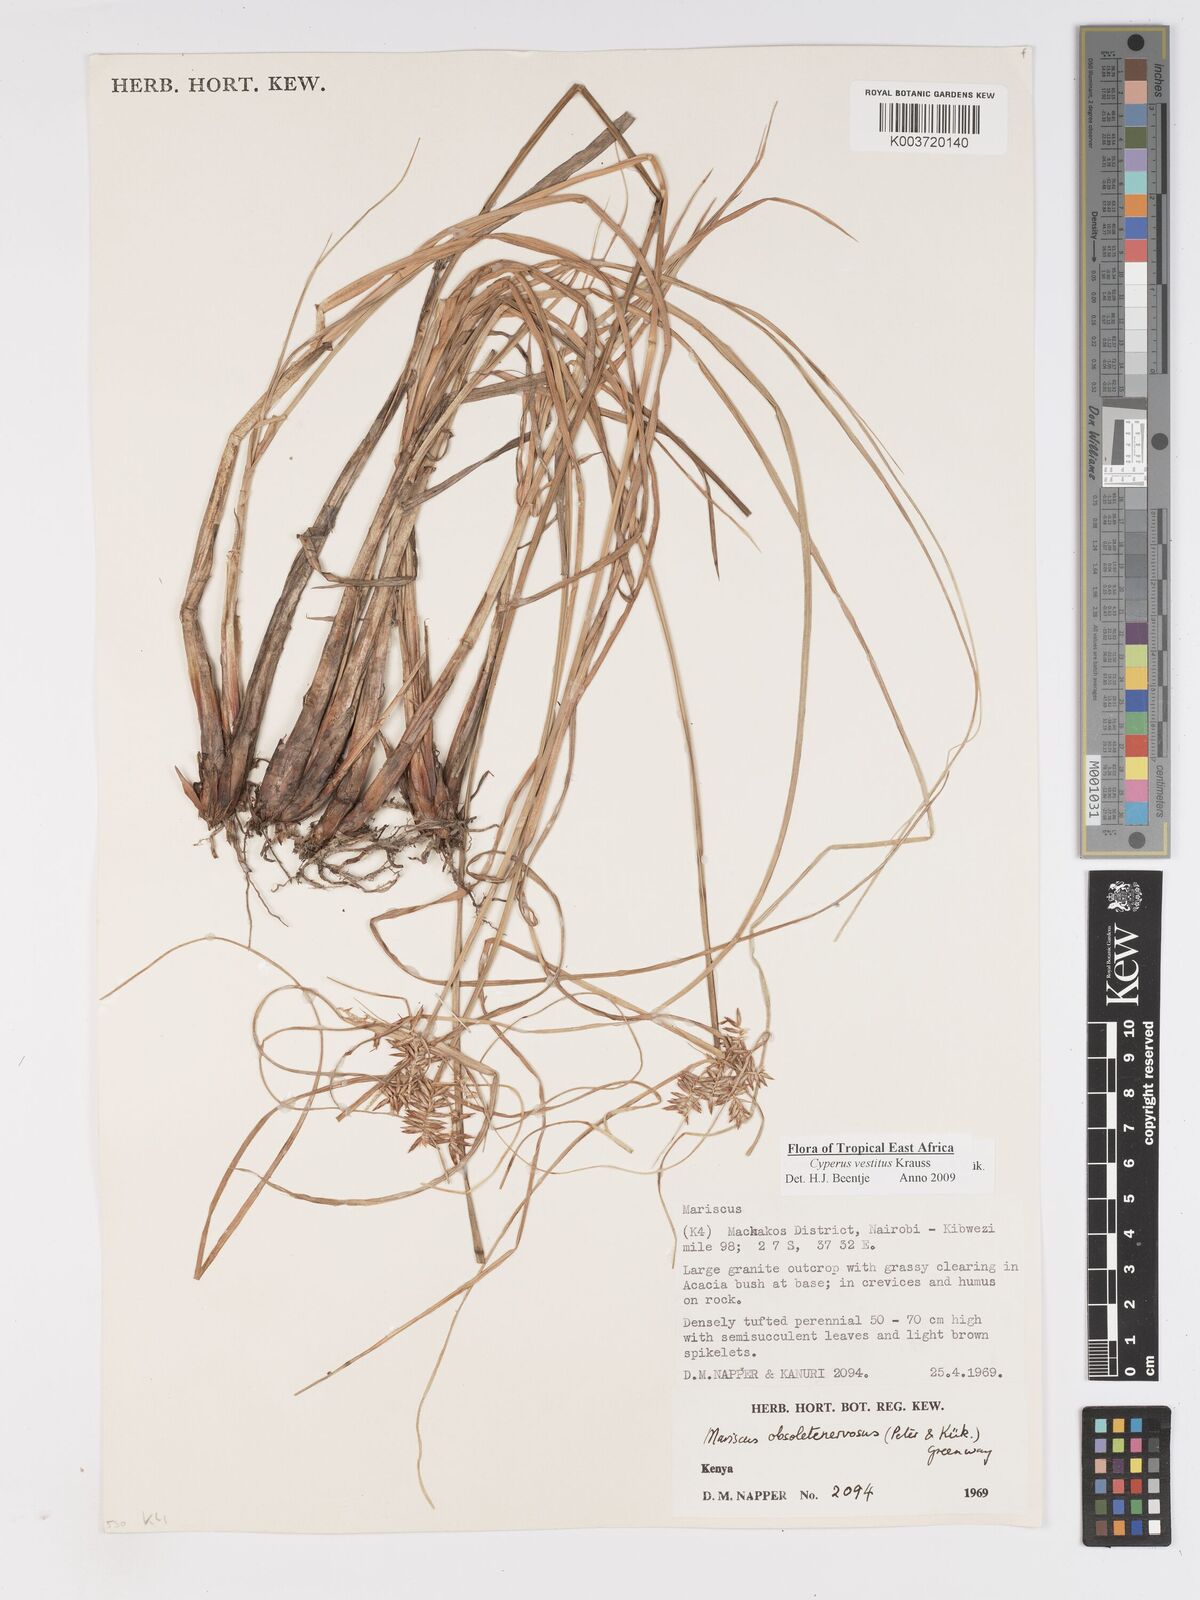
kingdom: Plantae
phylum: Tracheophyta
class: Liliopsida
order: Poales
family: Cyperaceae
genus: Cyperus
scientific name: Cyperus vestitus
